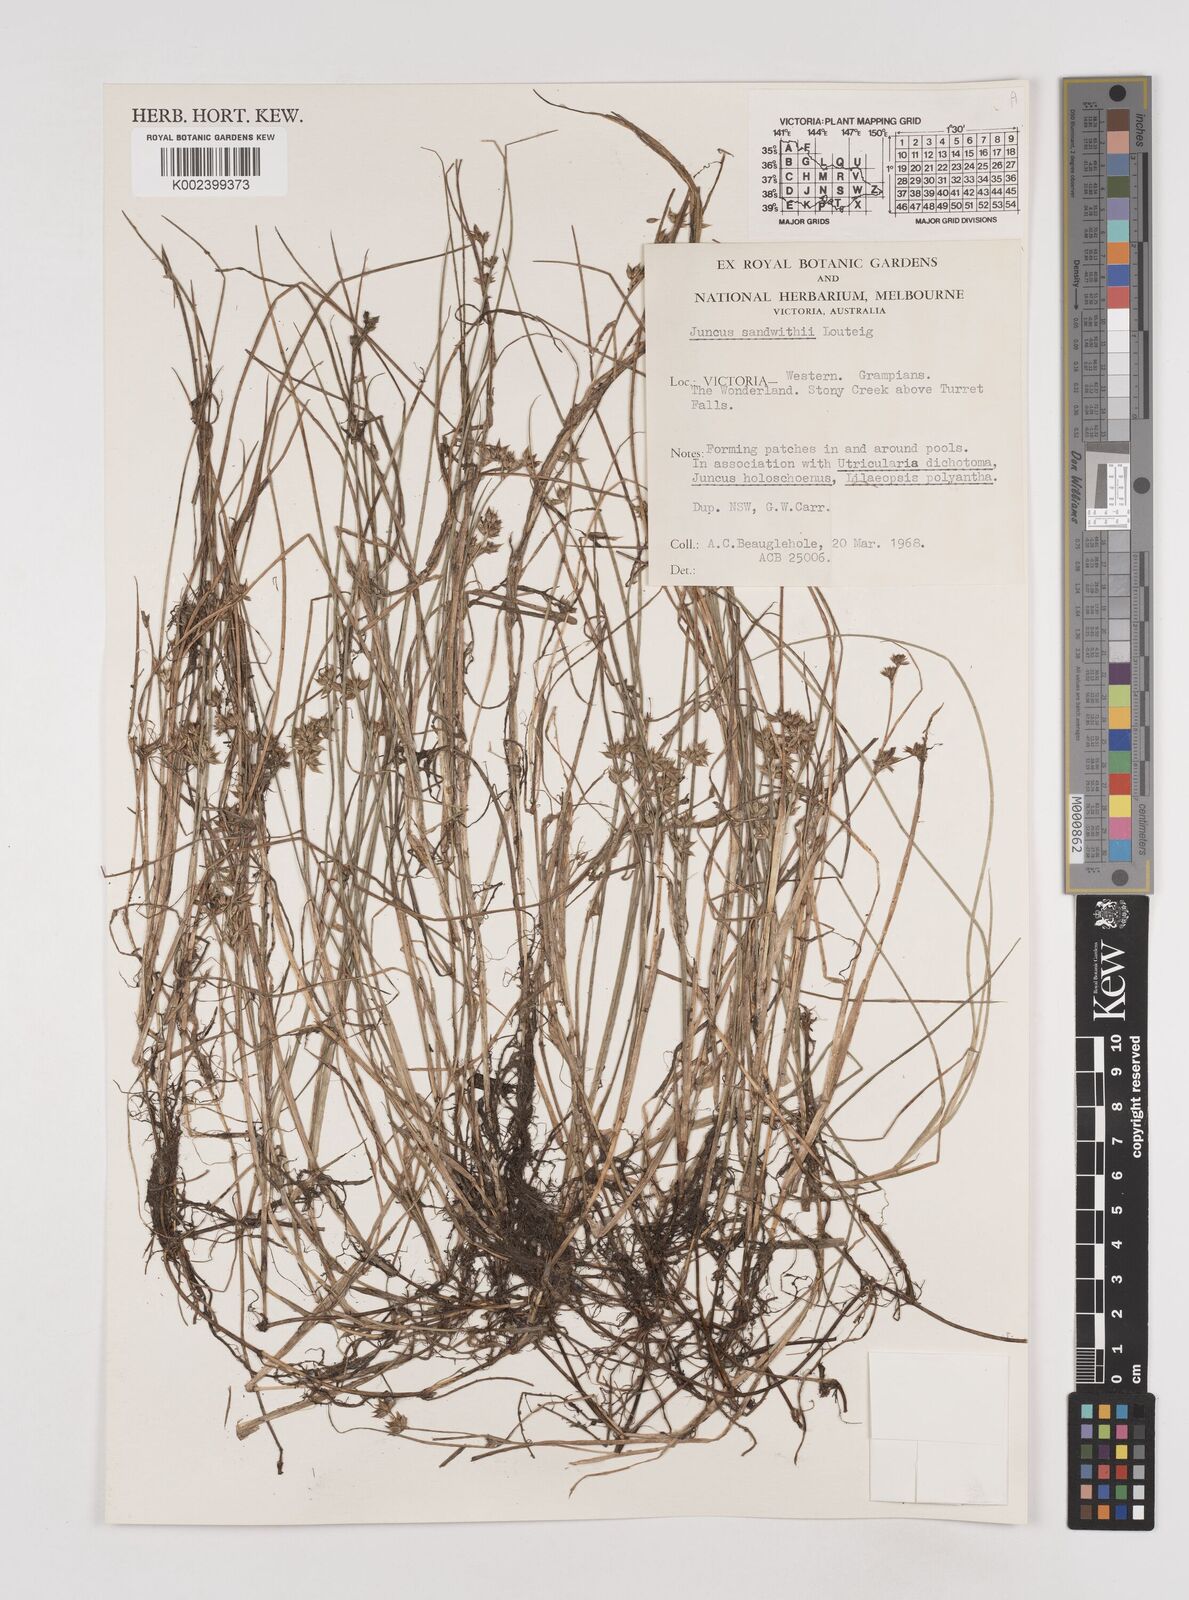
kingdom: Plantae
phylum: Tracheophyta
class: Liliopsida
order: Poales
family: Juncaceae
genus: Juncus
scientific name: Juncus sandwithii
